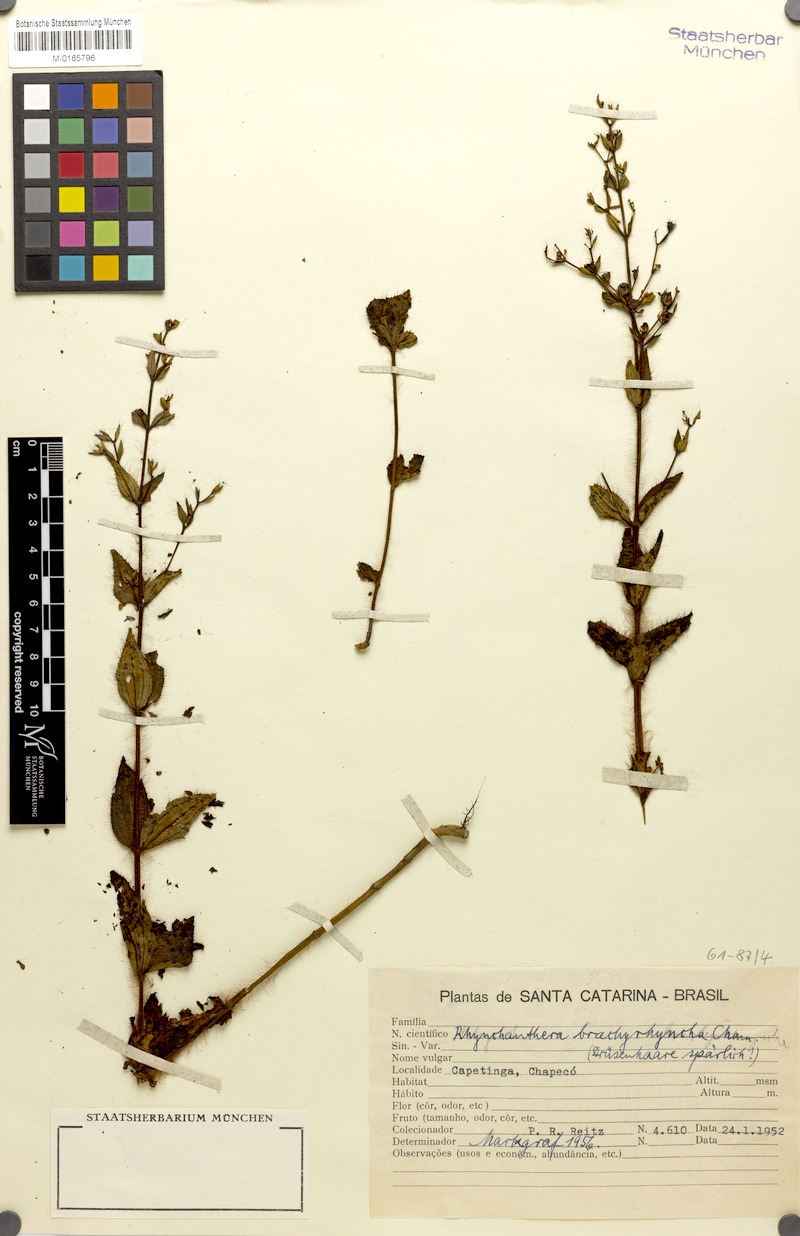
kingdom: Plantae
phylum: Tracheophyta
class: Magnoliopsida
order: Myrtales
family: Melastomataceae
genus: Rhynchanthera
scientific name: Rhynchanthera brachyrhyncha
